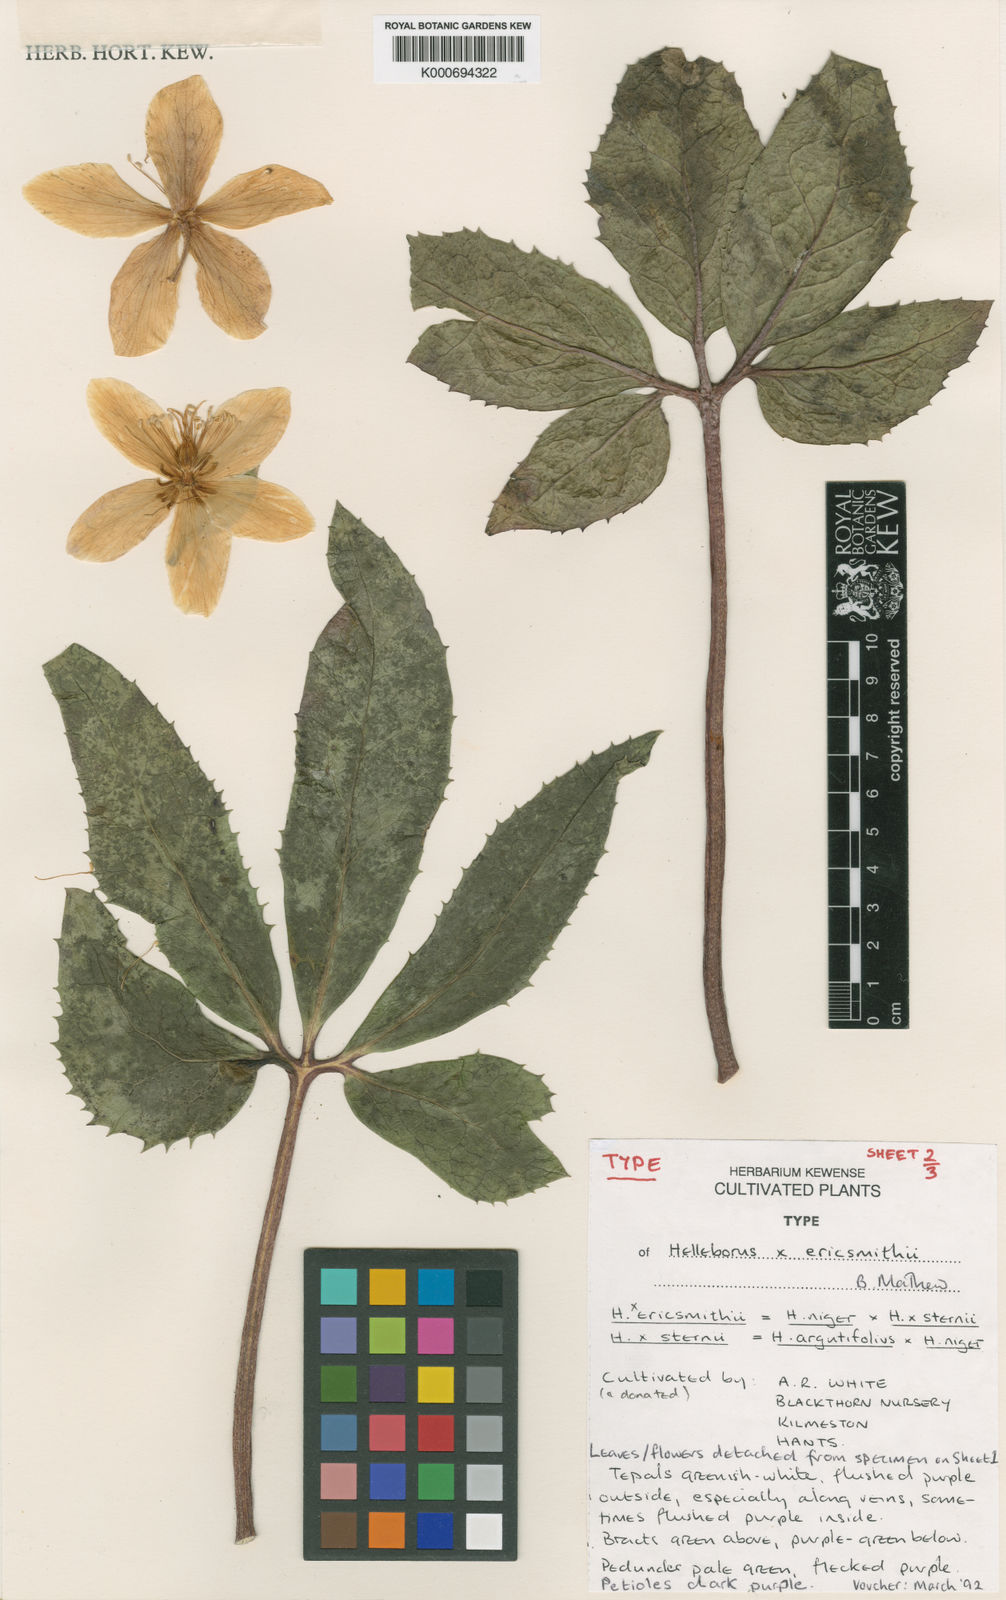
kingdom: Plantae
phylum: Tracheophyta
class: Magnoliopsida
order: Ranunculales
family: Ranunculaceae
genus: Helleborus
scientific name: Helleborus ericsmithii
